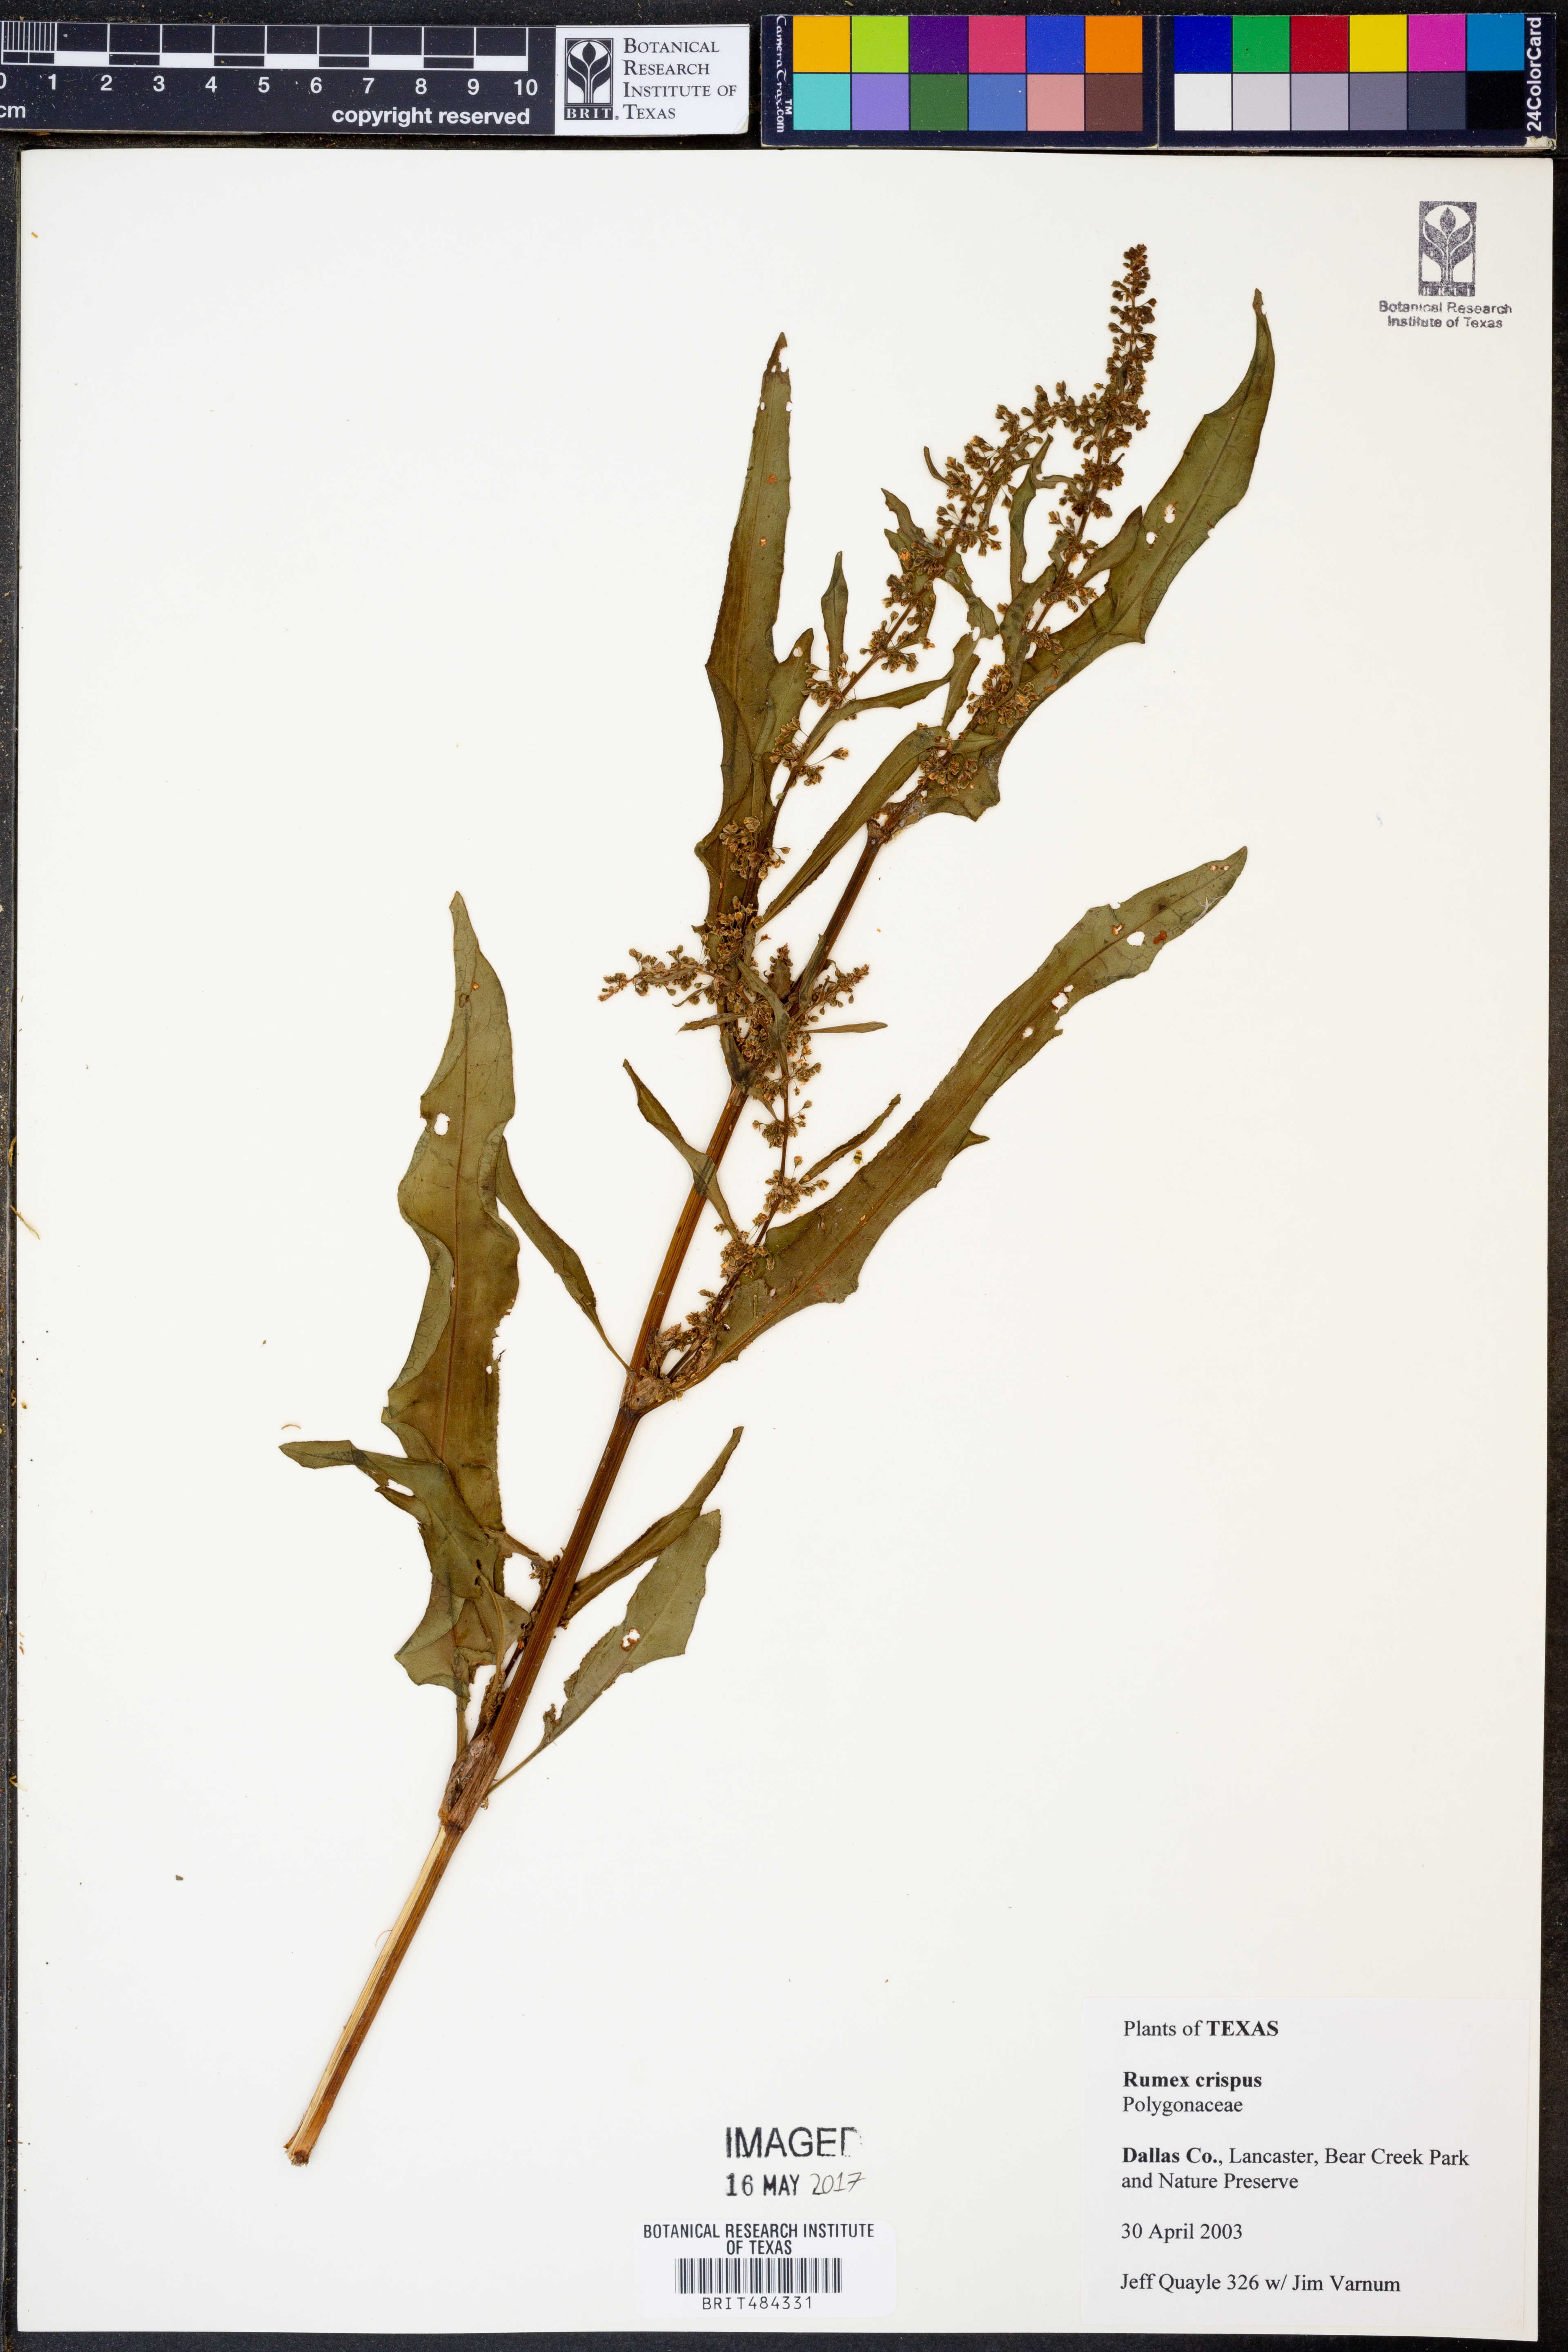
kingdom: Plantae
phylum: Tracheophyta
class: Magnoliopsida
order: Caryophyllales
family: Polygonaceae
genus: Rumex
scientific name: Rumex crispus
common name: Curled dock
